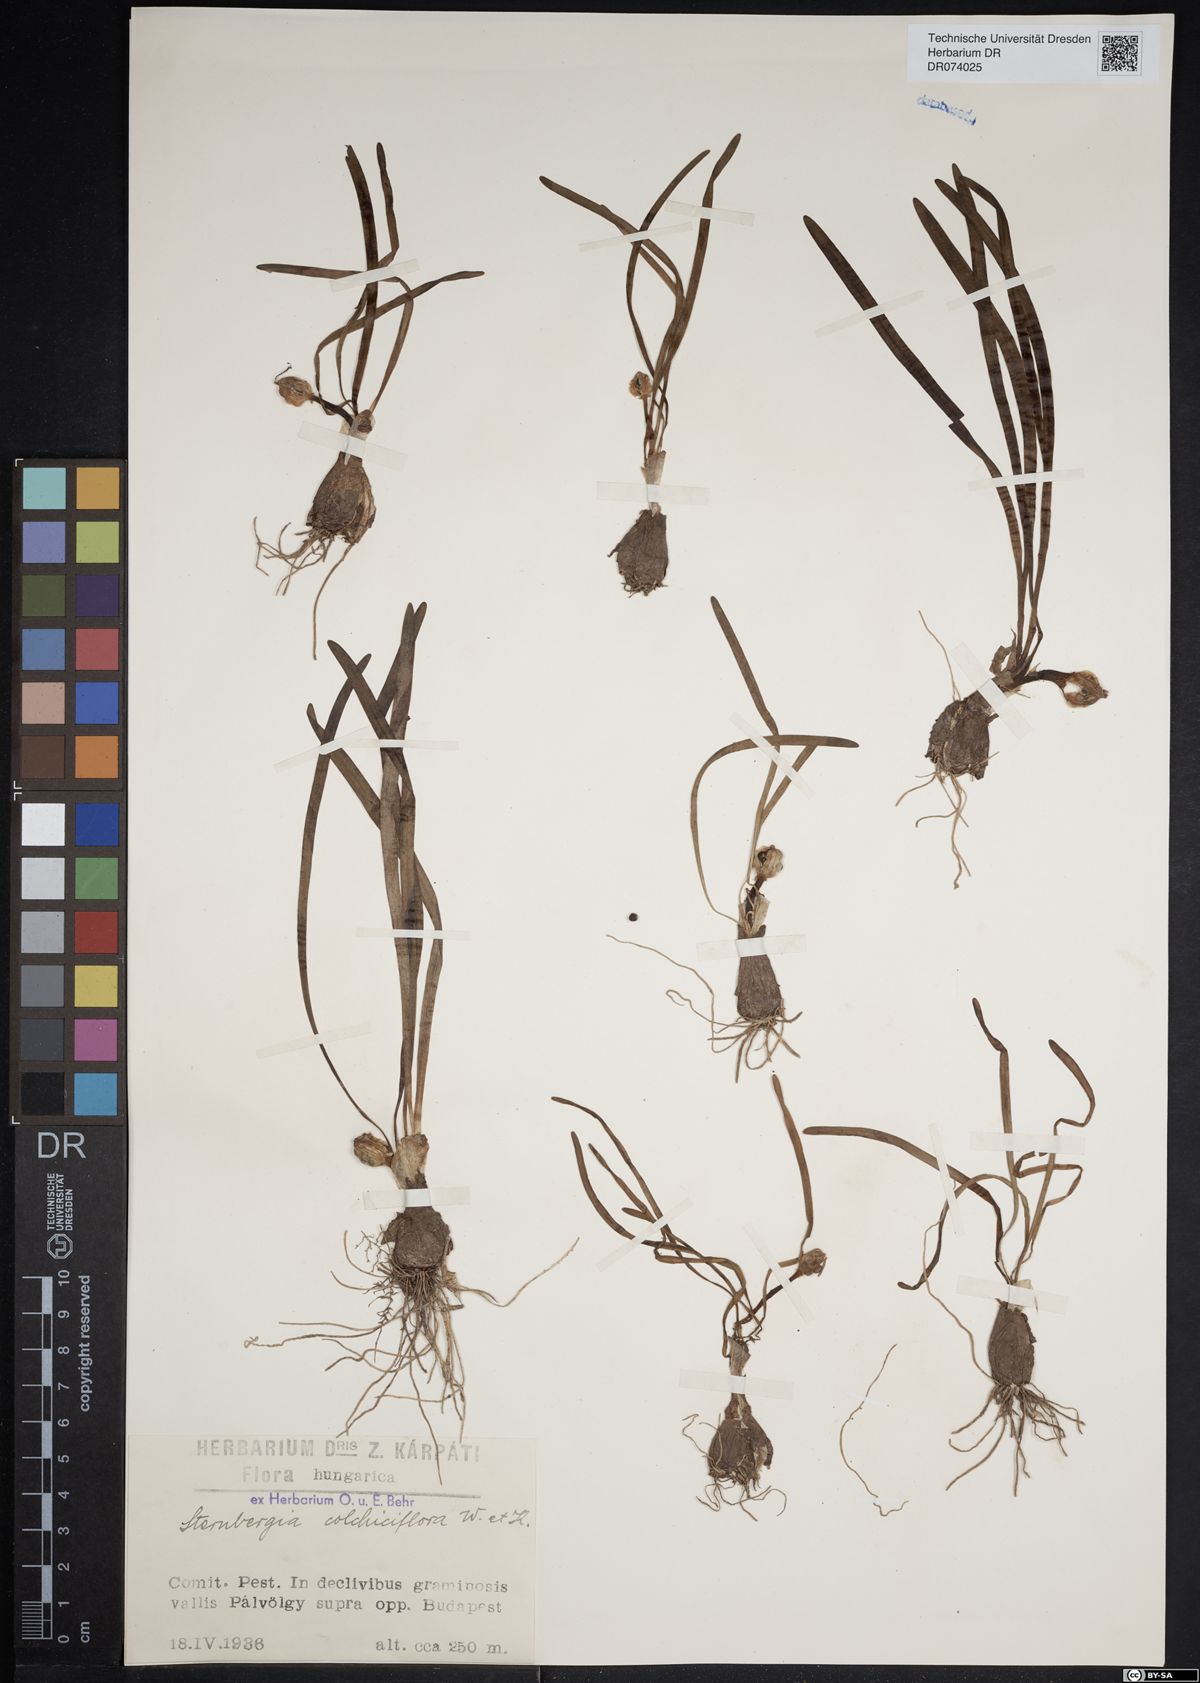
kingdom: Plantae
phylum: Tracheophyta
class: Liliopsida
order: Asparagales
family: Amaryllidaceae
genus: Sternbergia
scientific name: Sternbergia colchiciflora
